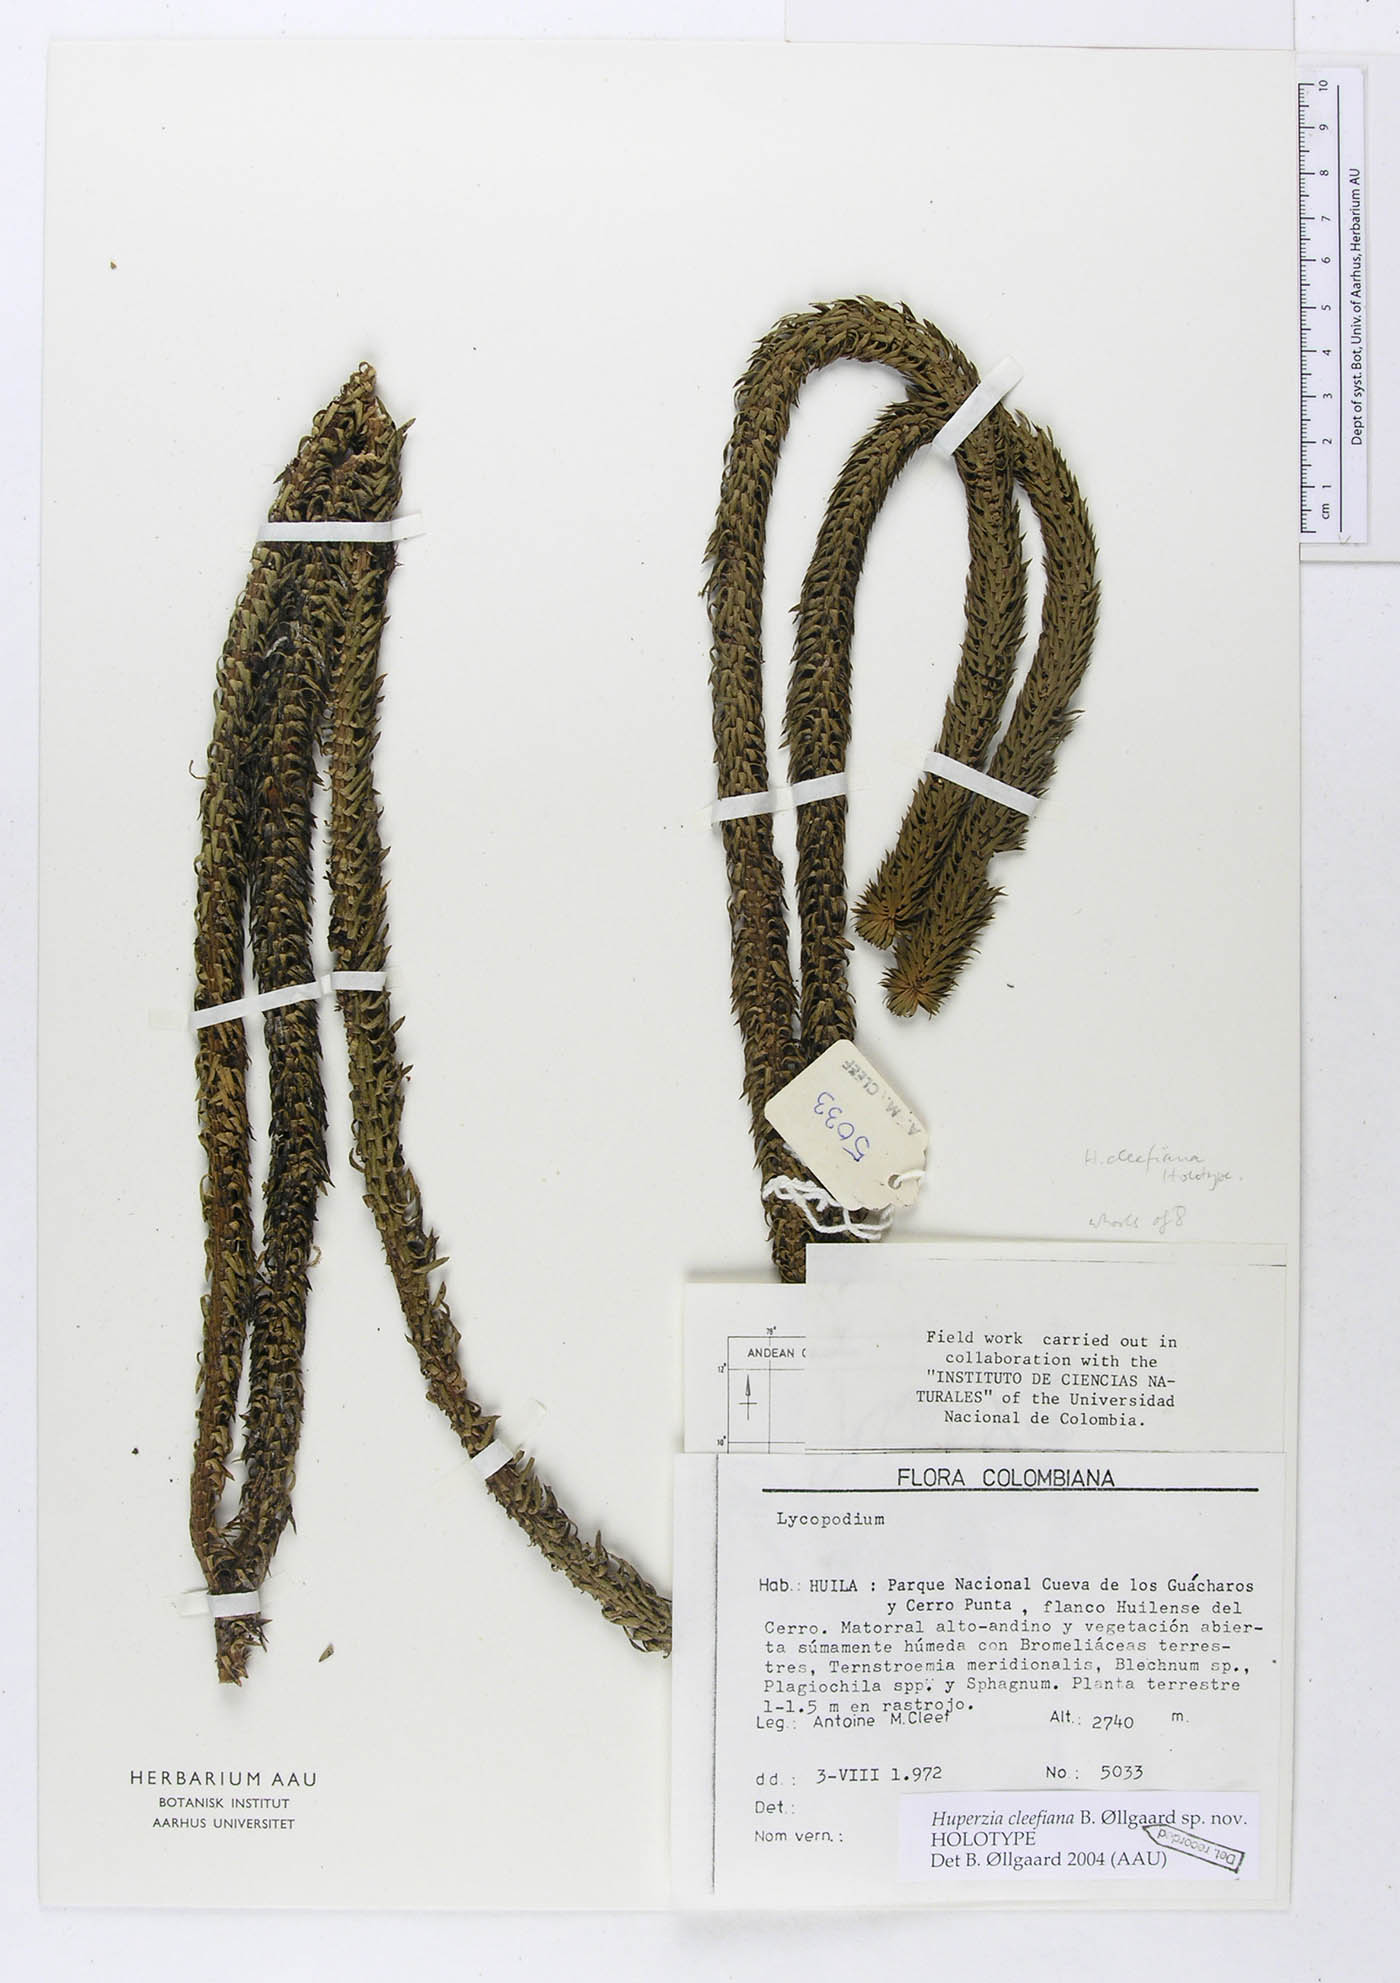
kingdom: Plantae
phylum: Tracheophyta
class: Lycopodiopsida
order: Lycopodiales
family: Lycopodiaceae
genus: Phlegmariurus
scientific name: Phlegmariurus cleefianus
